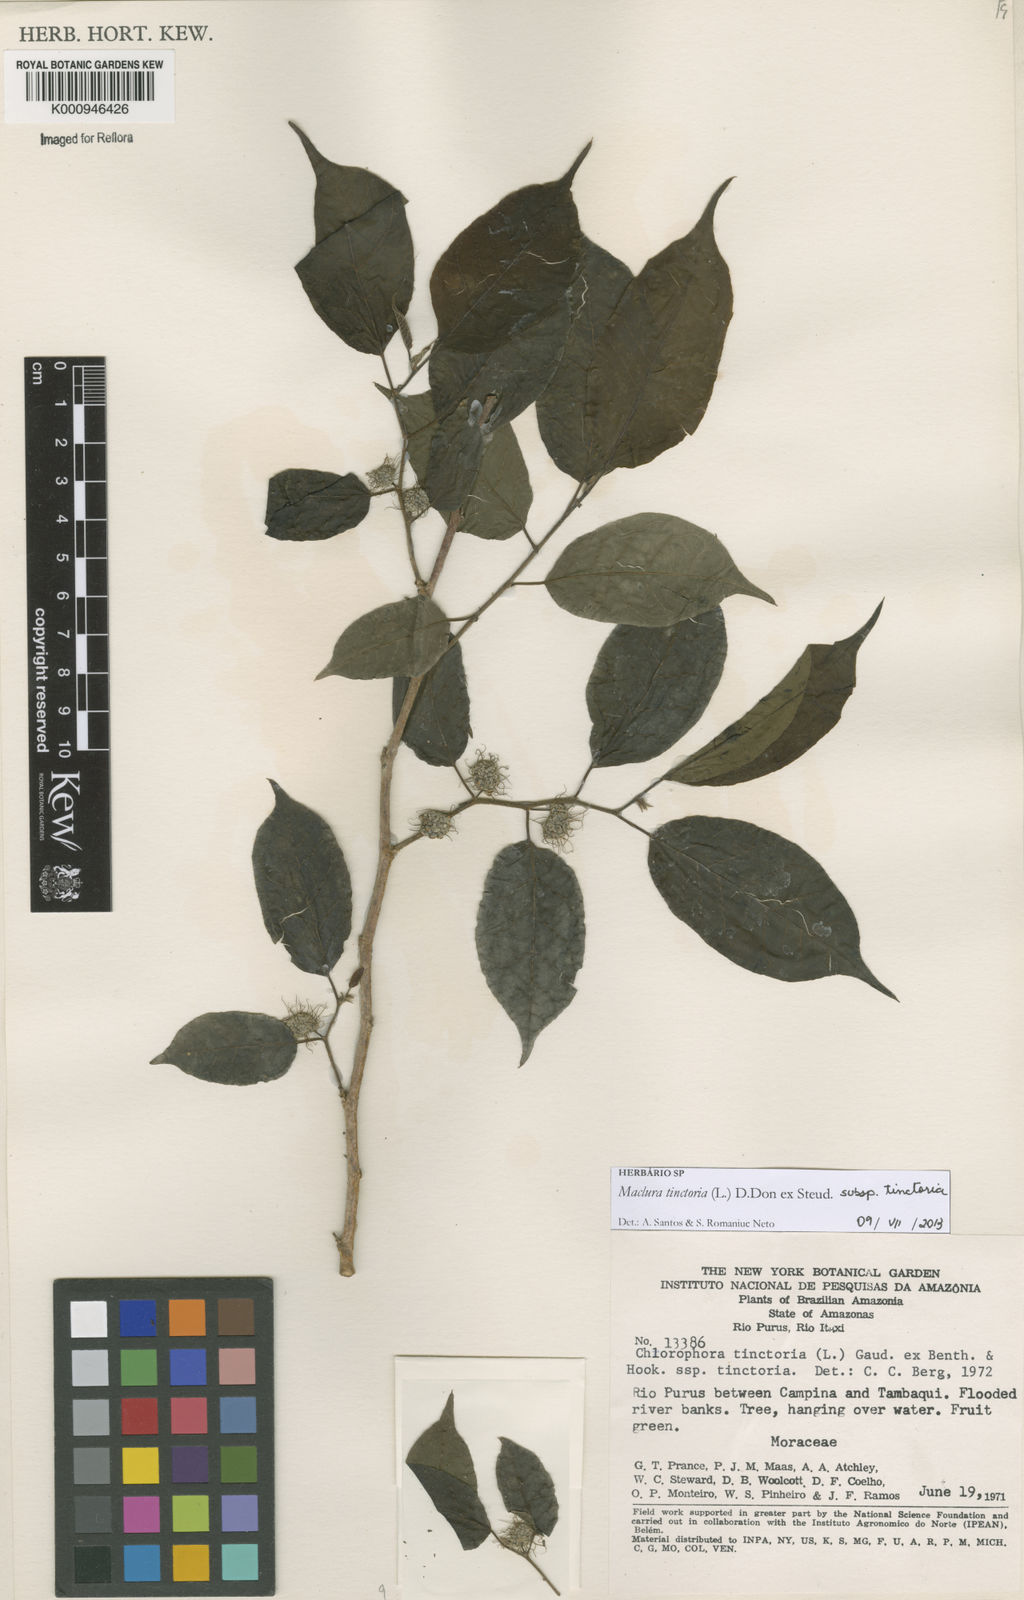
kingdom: Plantae
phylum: Tracheophyta
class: Magnoliopsida
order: Rosales
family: Moraceae
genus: Maclura
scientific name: Maclura
